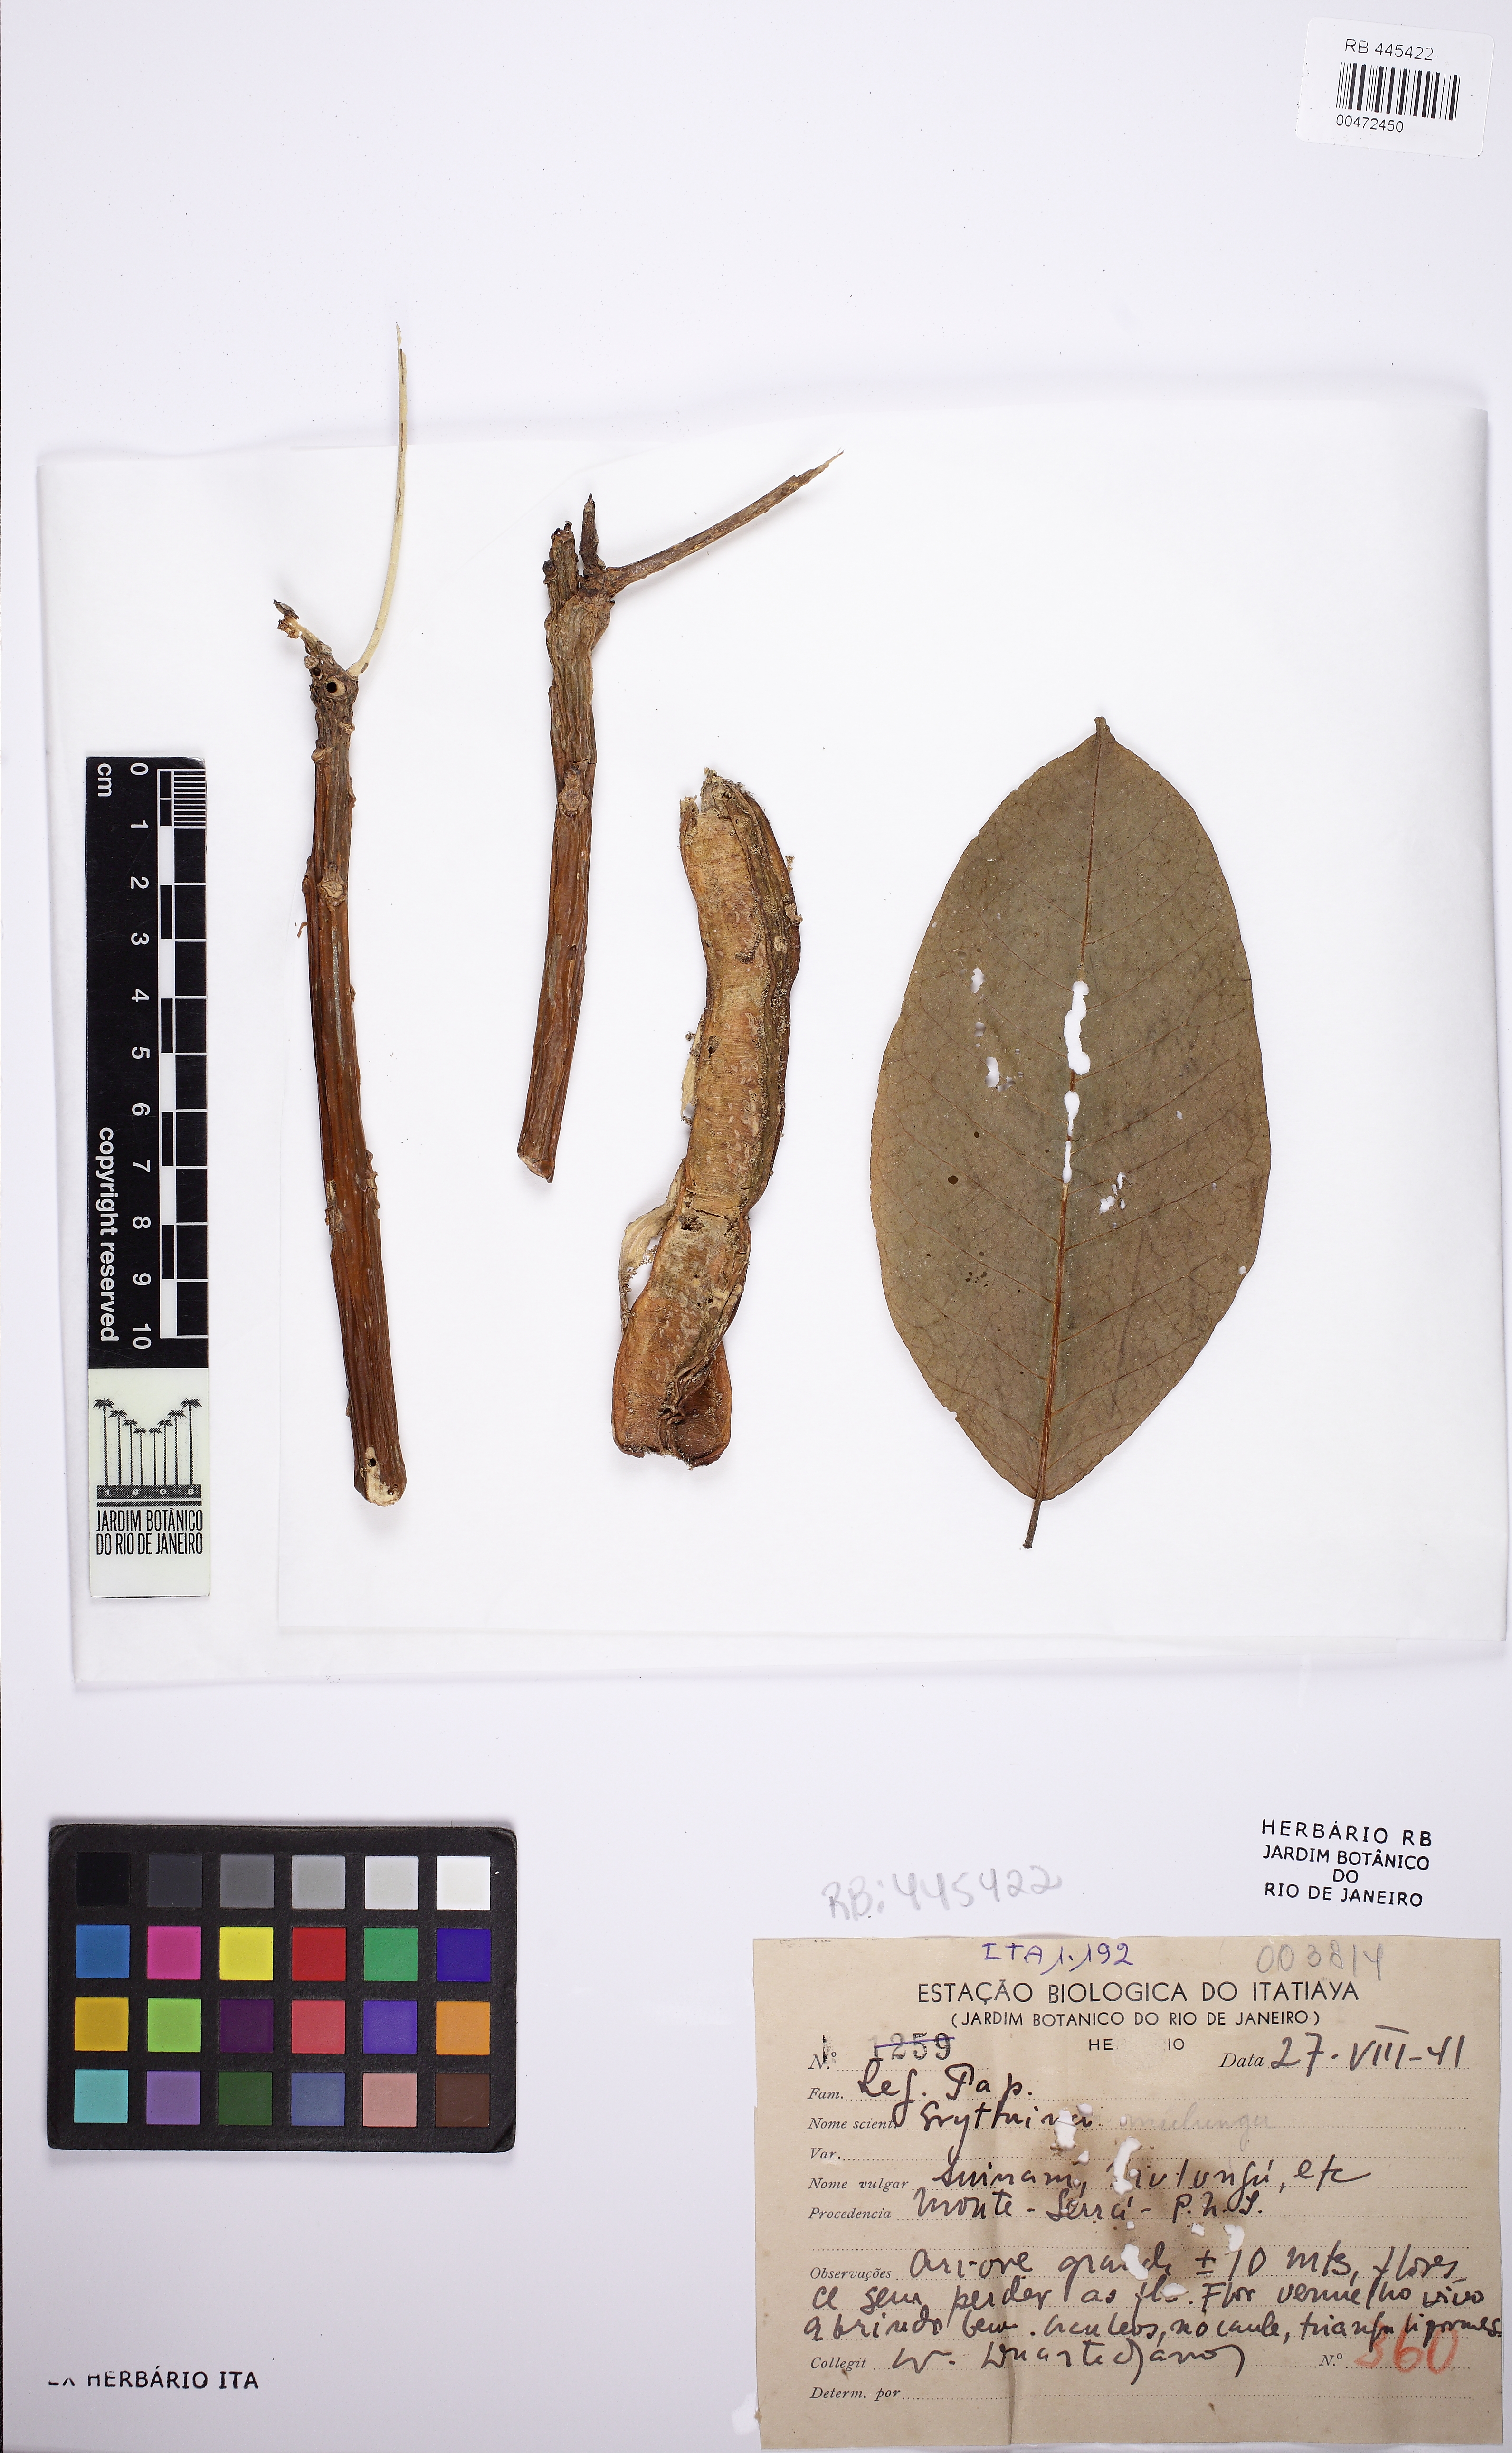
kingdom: Plantae
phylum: Tracheophyta
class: Magnoliopsida
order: Fabales
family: Fabaceae
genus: Erythrina
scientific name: Erythrina crista-galli
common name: Cockspur coral tree
